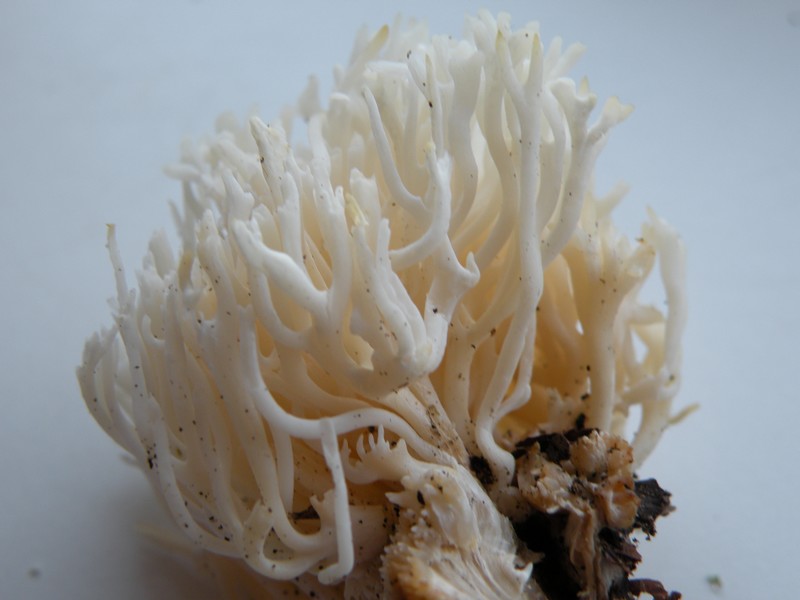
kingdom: Fungi
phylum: Basidiomycota
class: Agaricomycetes
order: Agaricales
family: Clavariaceae
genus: Ramariopsis
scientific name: Ramariopsis kunzei
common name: mangegrenet køllesvamp
